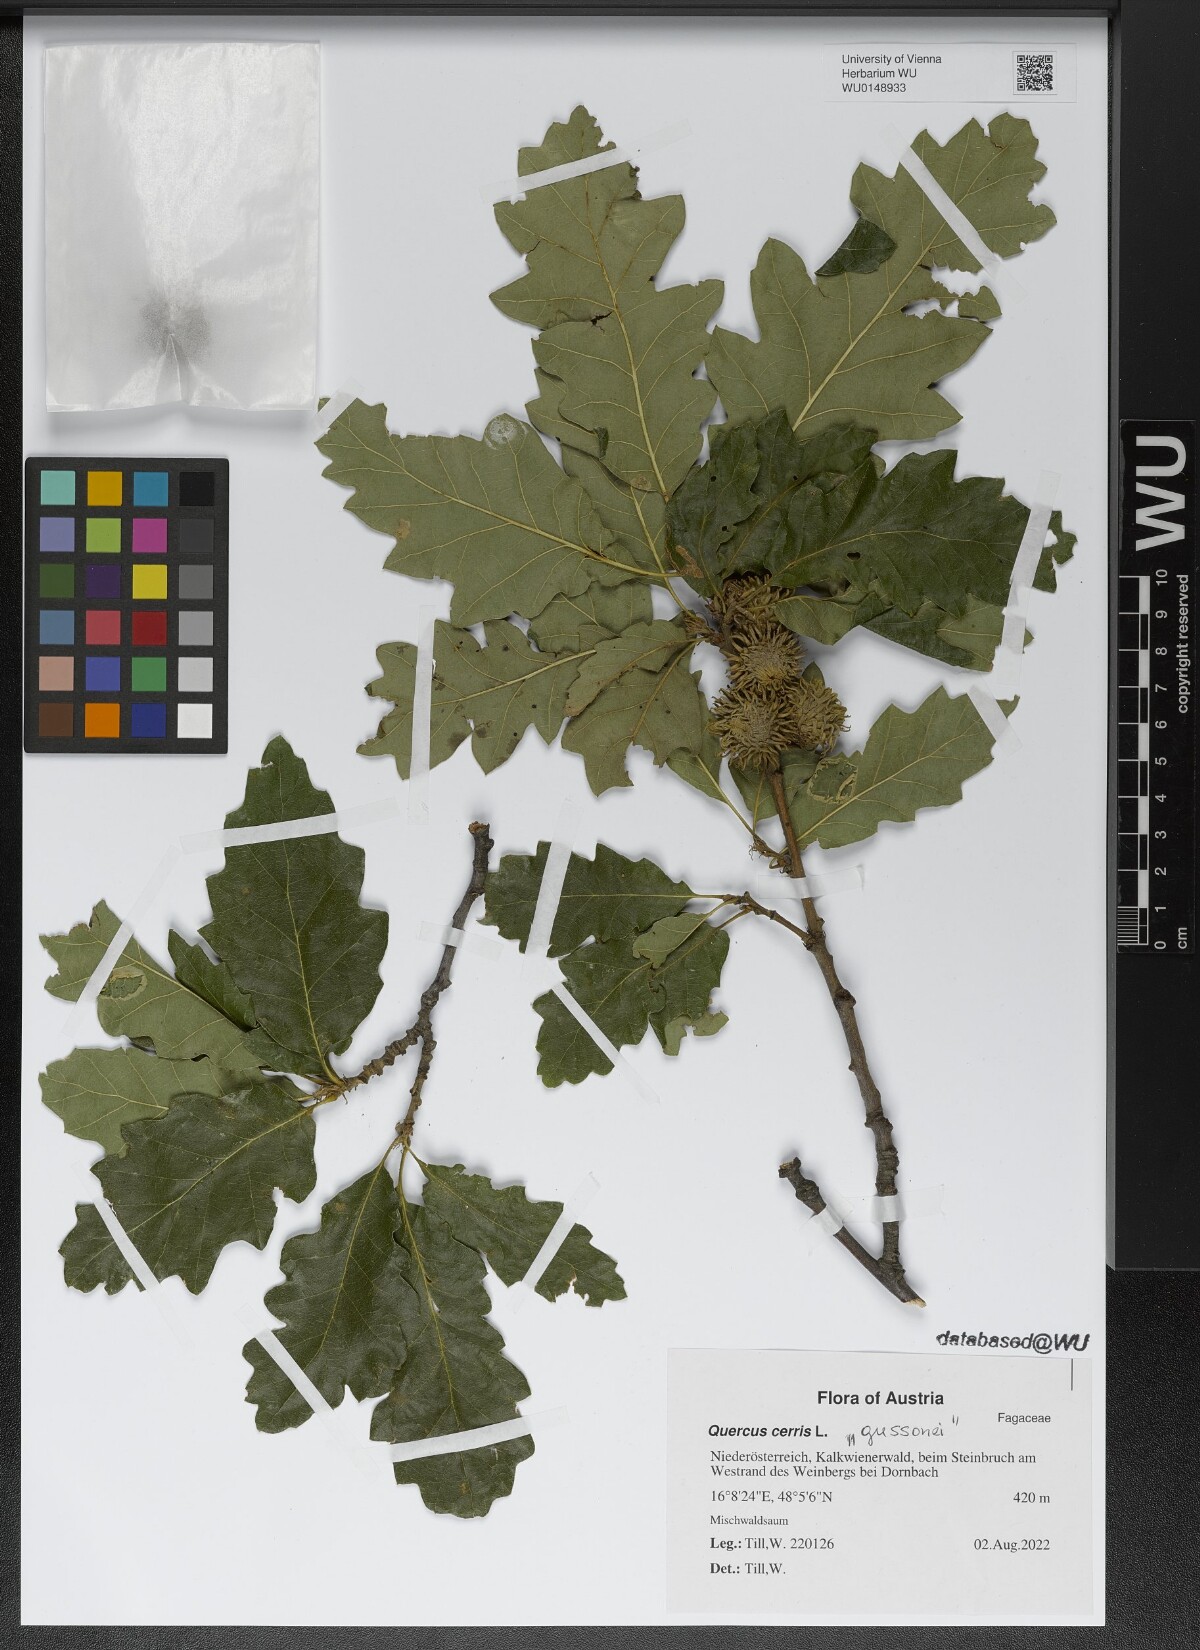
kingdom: Plantae
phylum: Tracheophyta
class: Magnoliopsida
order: Fagales
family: Fagaceae
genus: Quercus
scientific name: Quercus cerris
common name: Turkey oak
